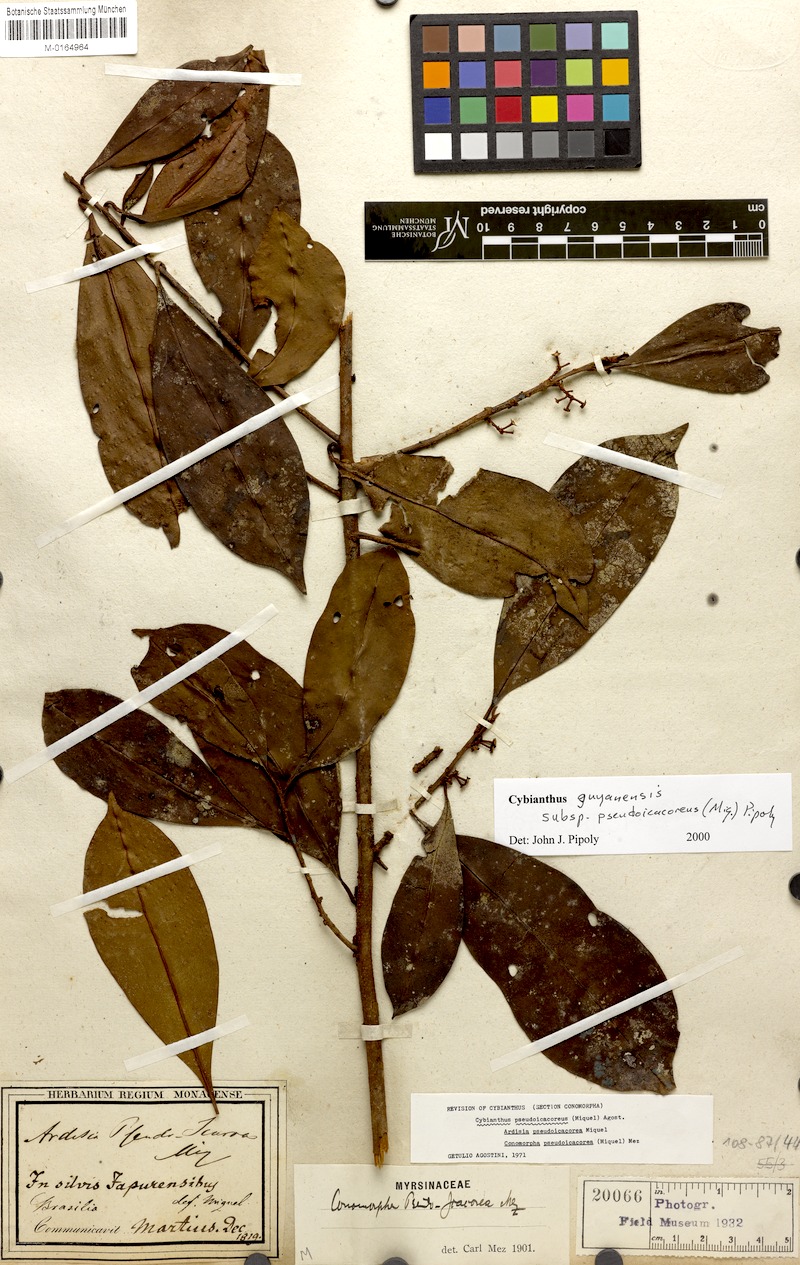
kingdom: Plantae
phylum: Tracheophyta
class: Magnoliopsida
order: Ericales
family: Primulaceae
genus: Cybianthus
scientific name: Cybianthus guyanensis
